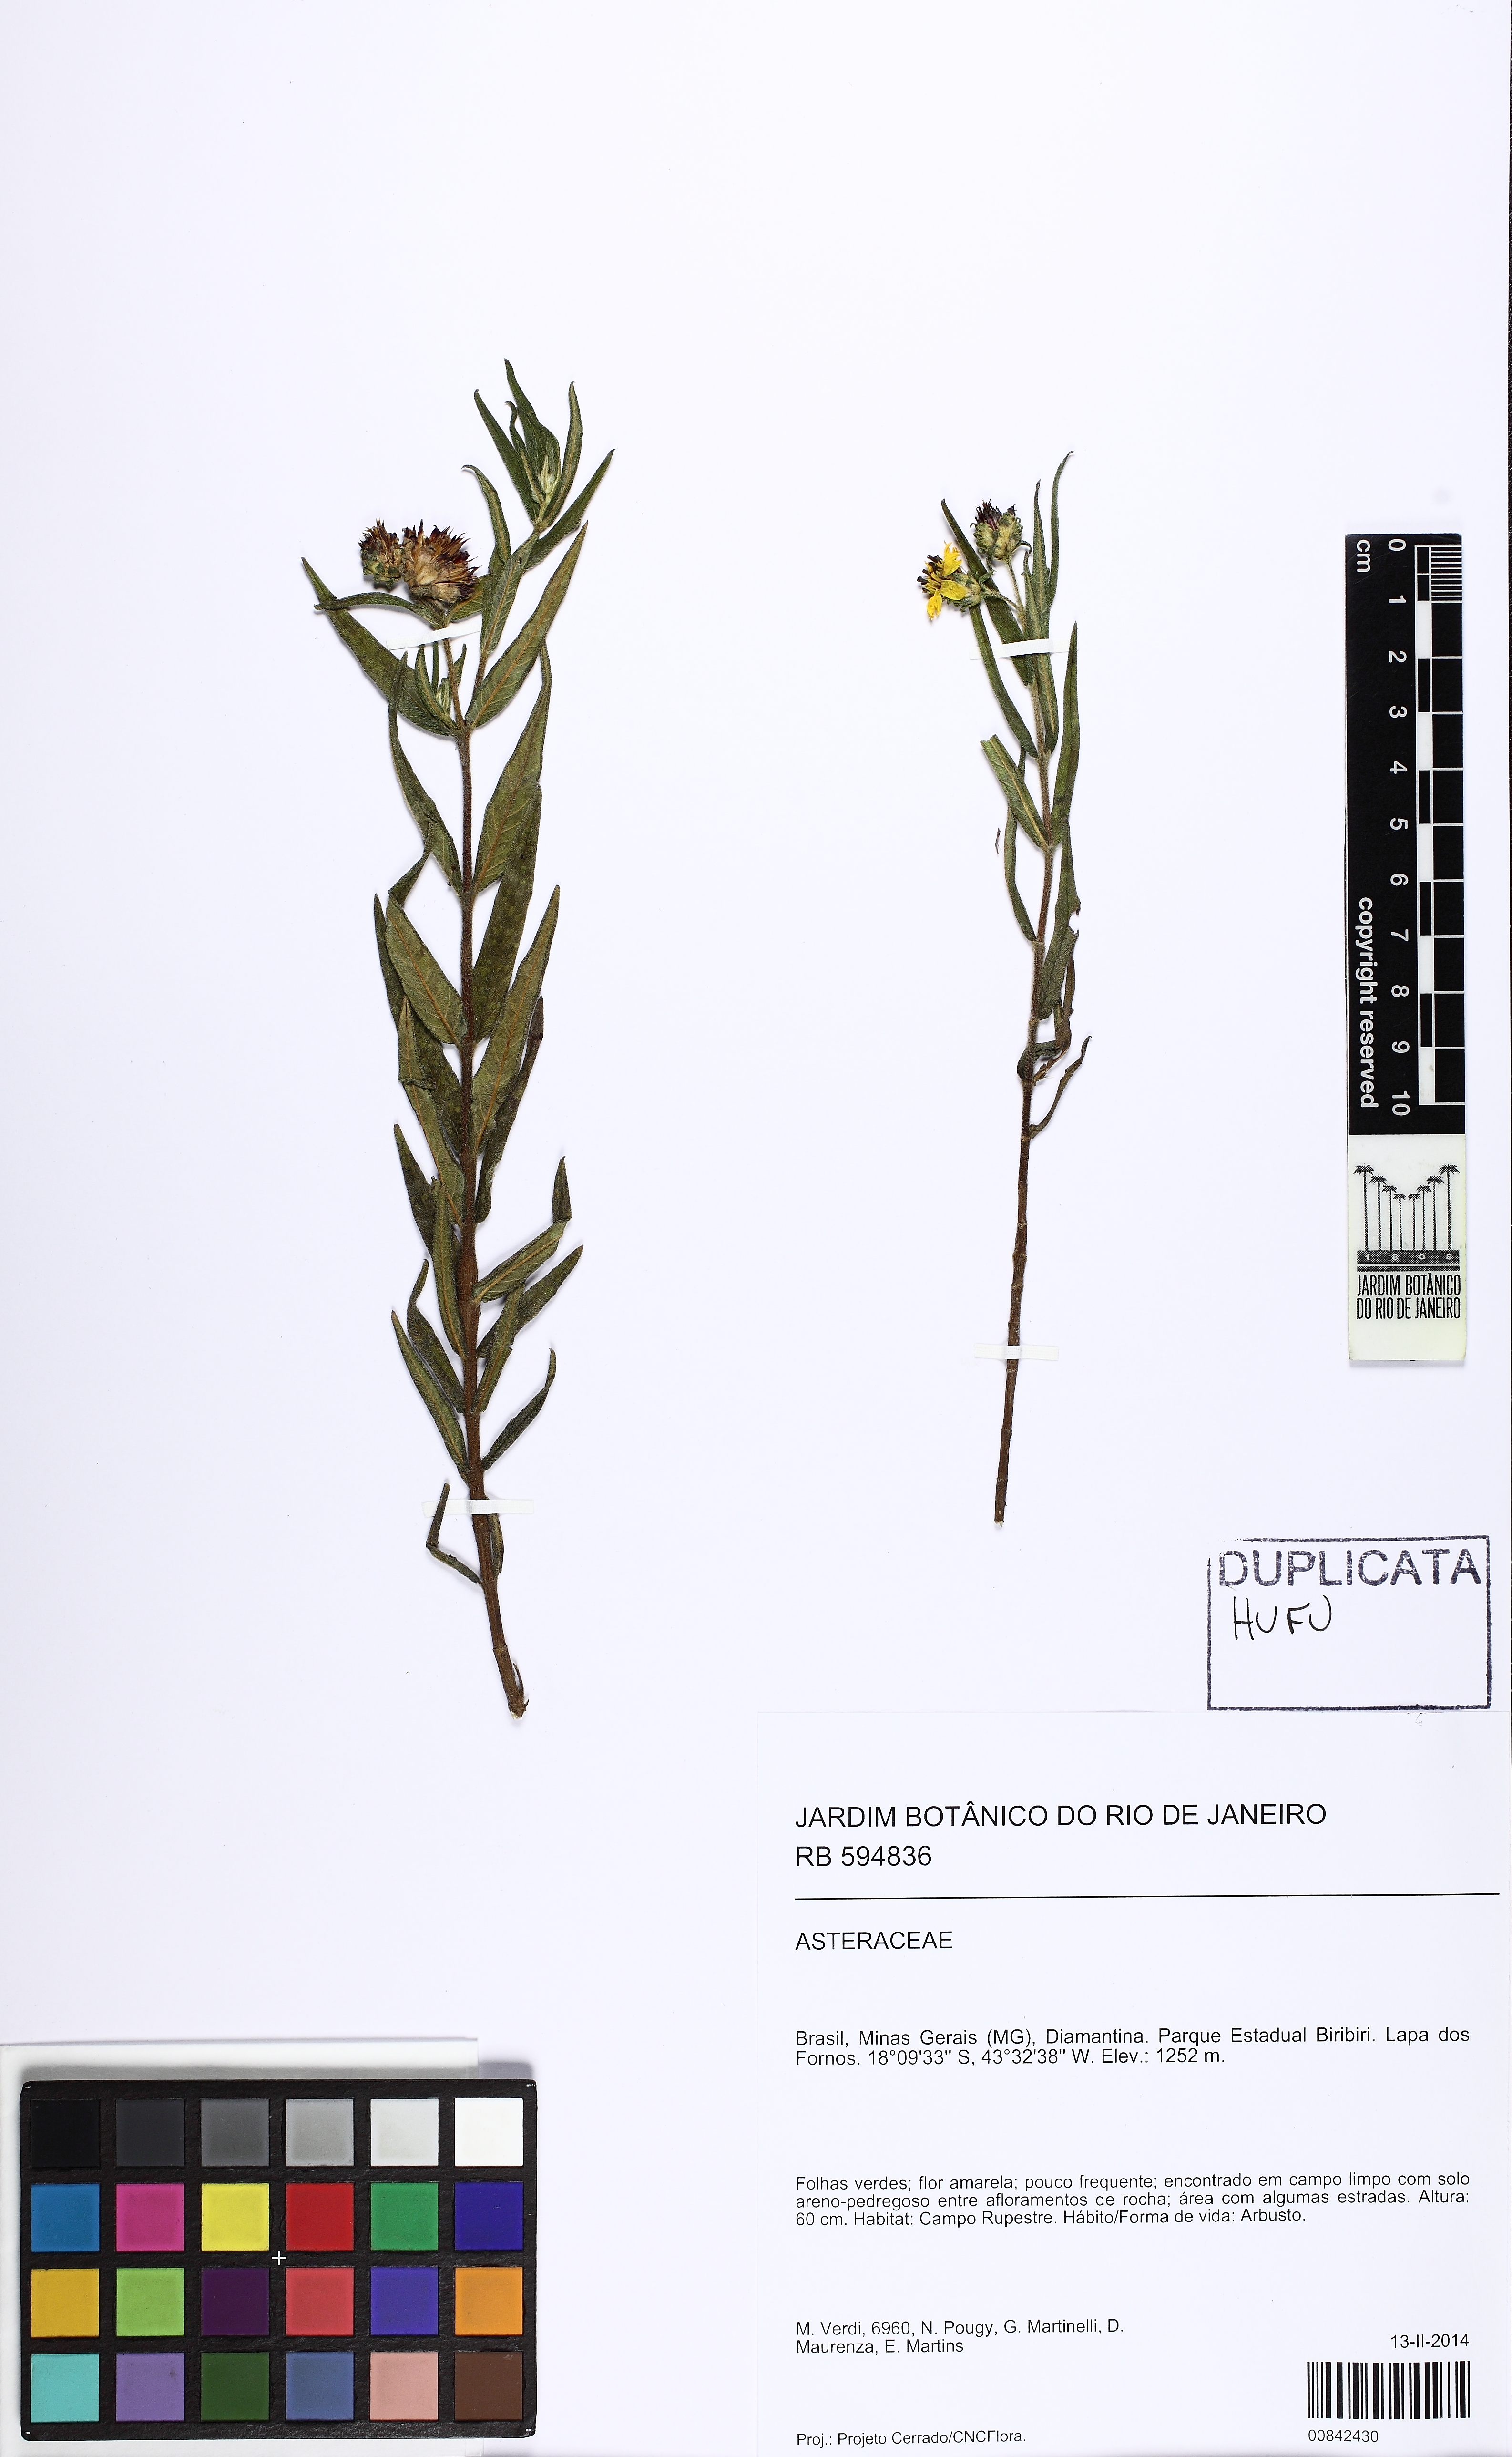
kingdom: Plantae
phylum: Tracheophyta
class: Magnoliopsida
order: Asterales
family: Asteraceae
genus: Aspilia
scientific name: Aspilia foliosa
